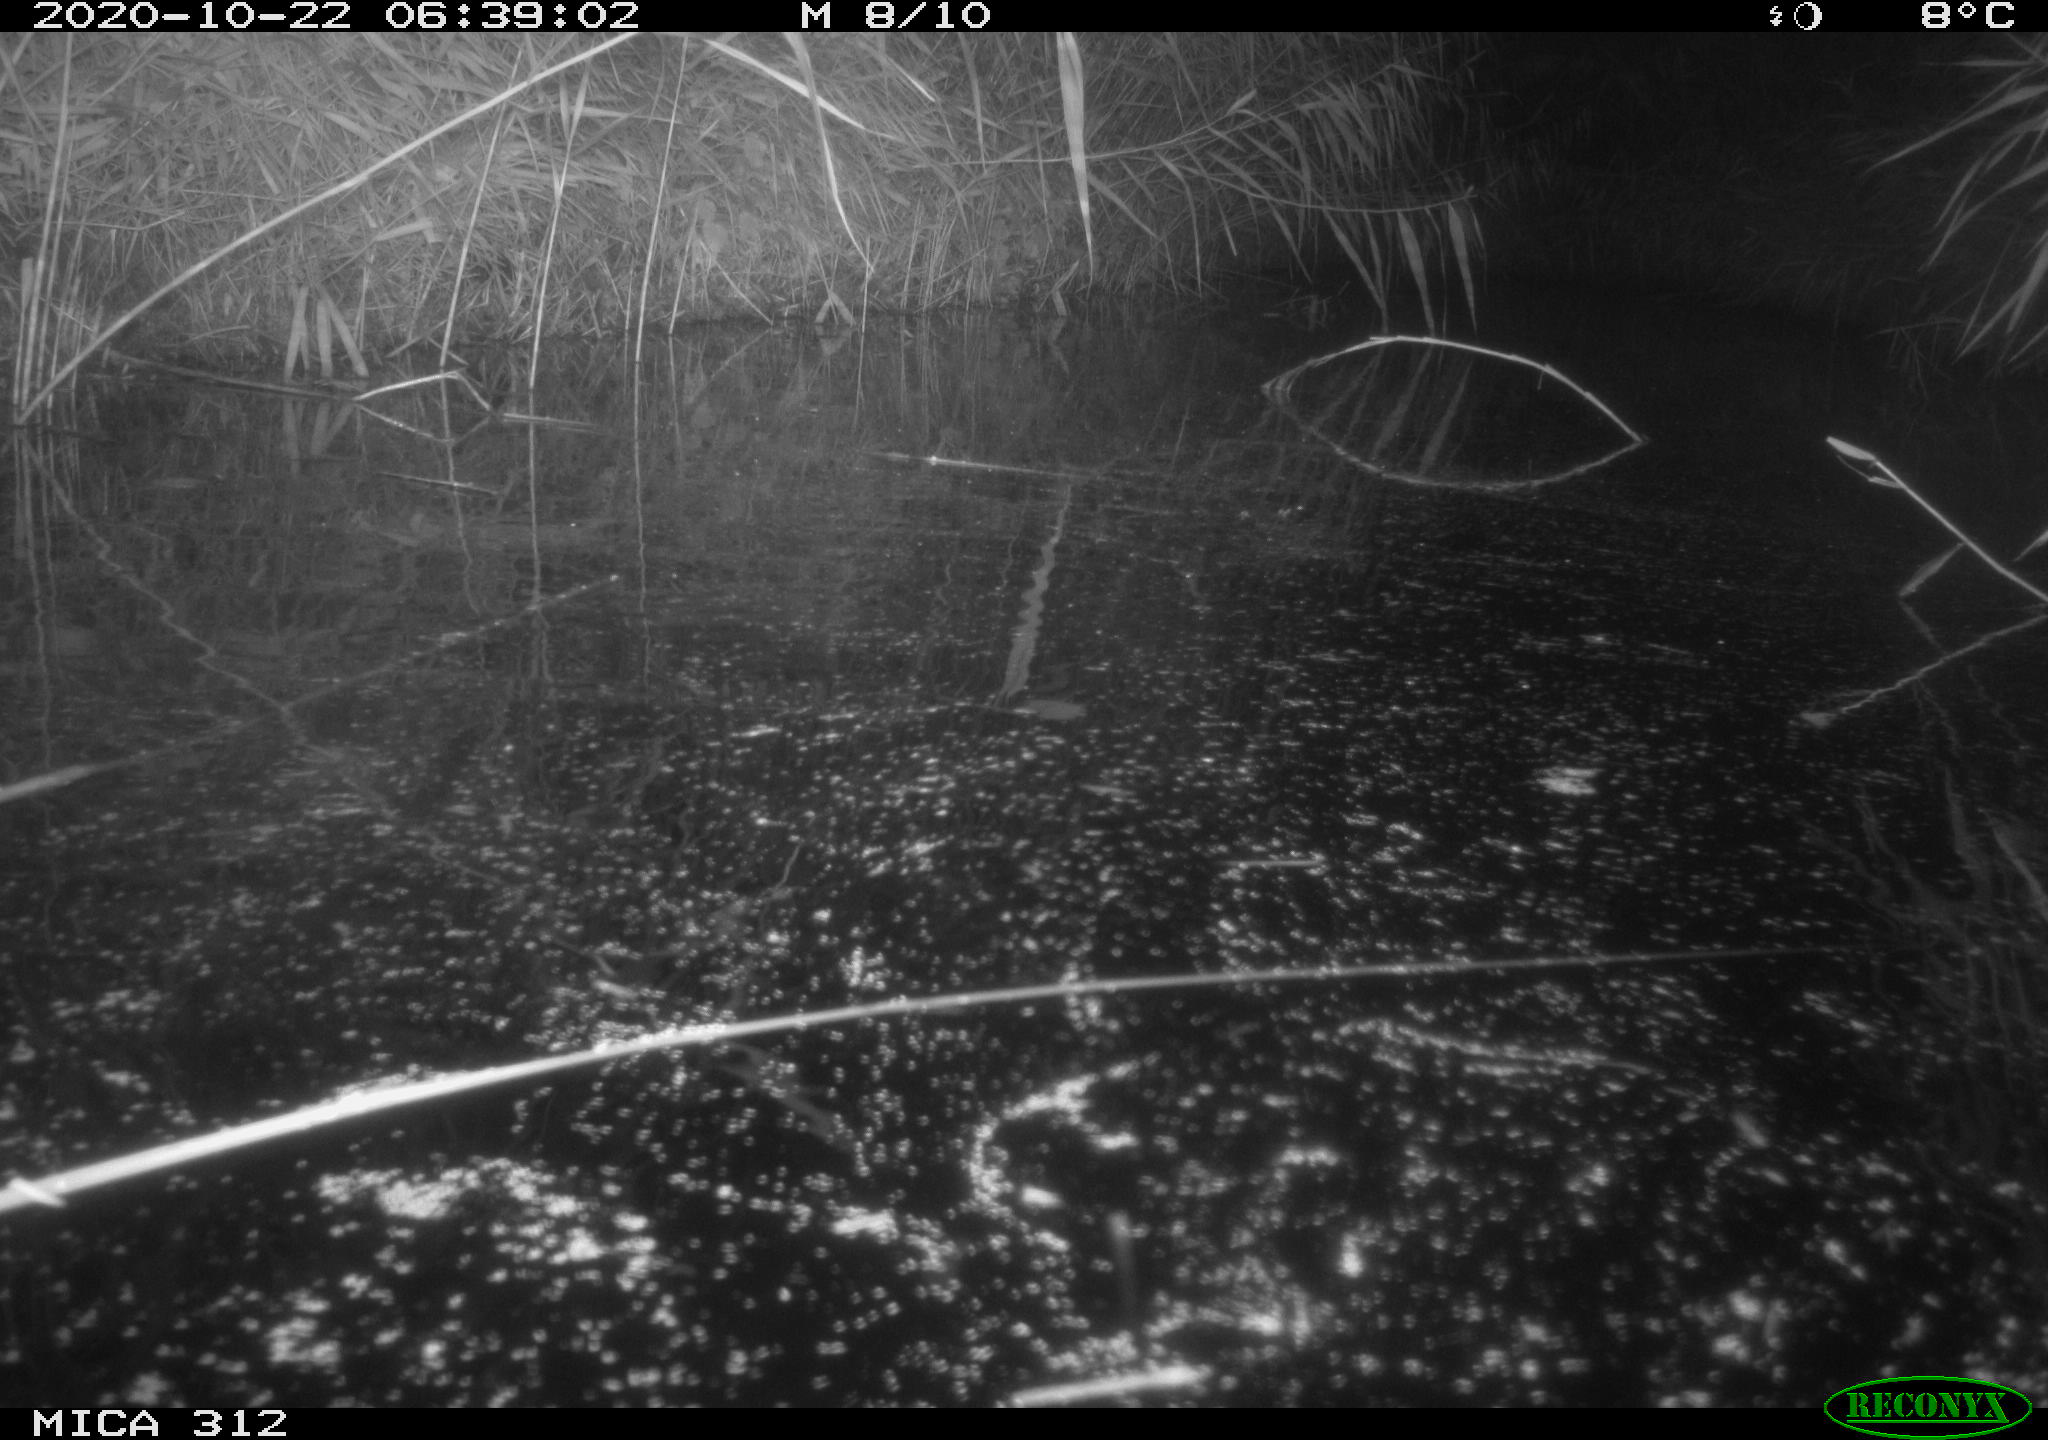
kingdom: Animalia
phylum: Chordata
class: Mammalia
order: Rodentia
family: Muridae
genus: Rattus
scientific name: Rattus norvegicus
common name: Brown rat
